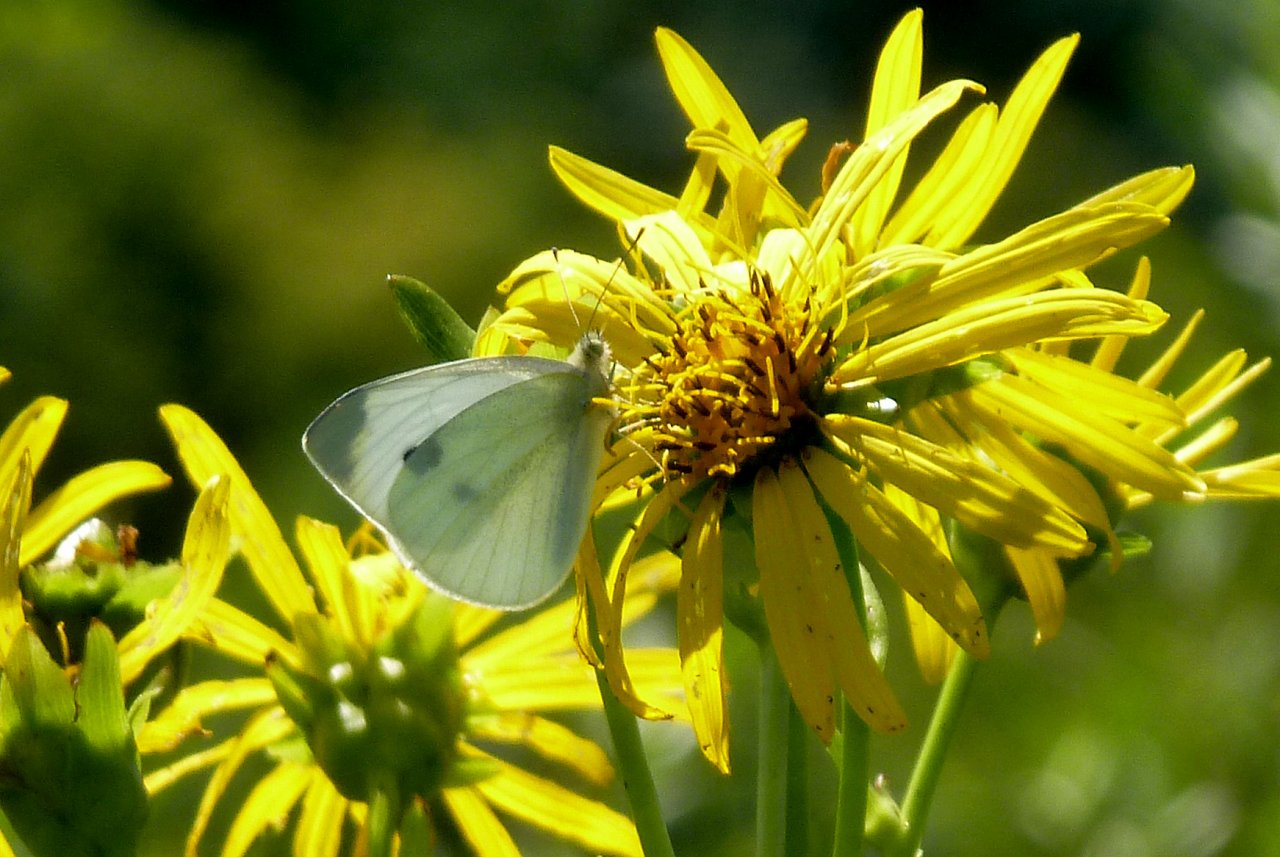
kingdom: Animalia
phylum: Arthropoda
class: Insecta
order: Lepidoptera
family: Pieridae
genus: Pieris
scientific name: Pieris rapae
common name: Cabbage White
